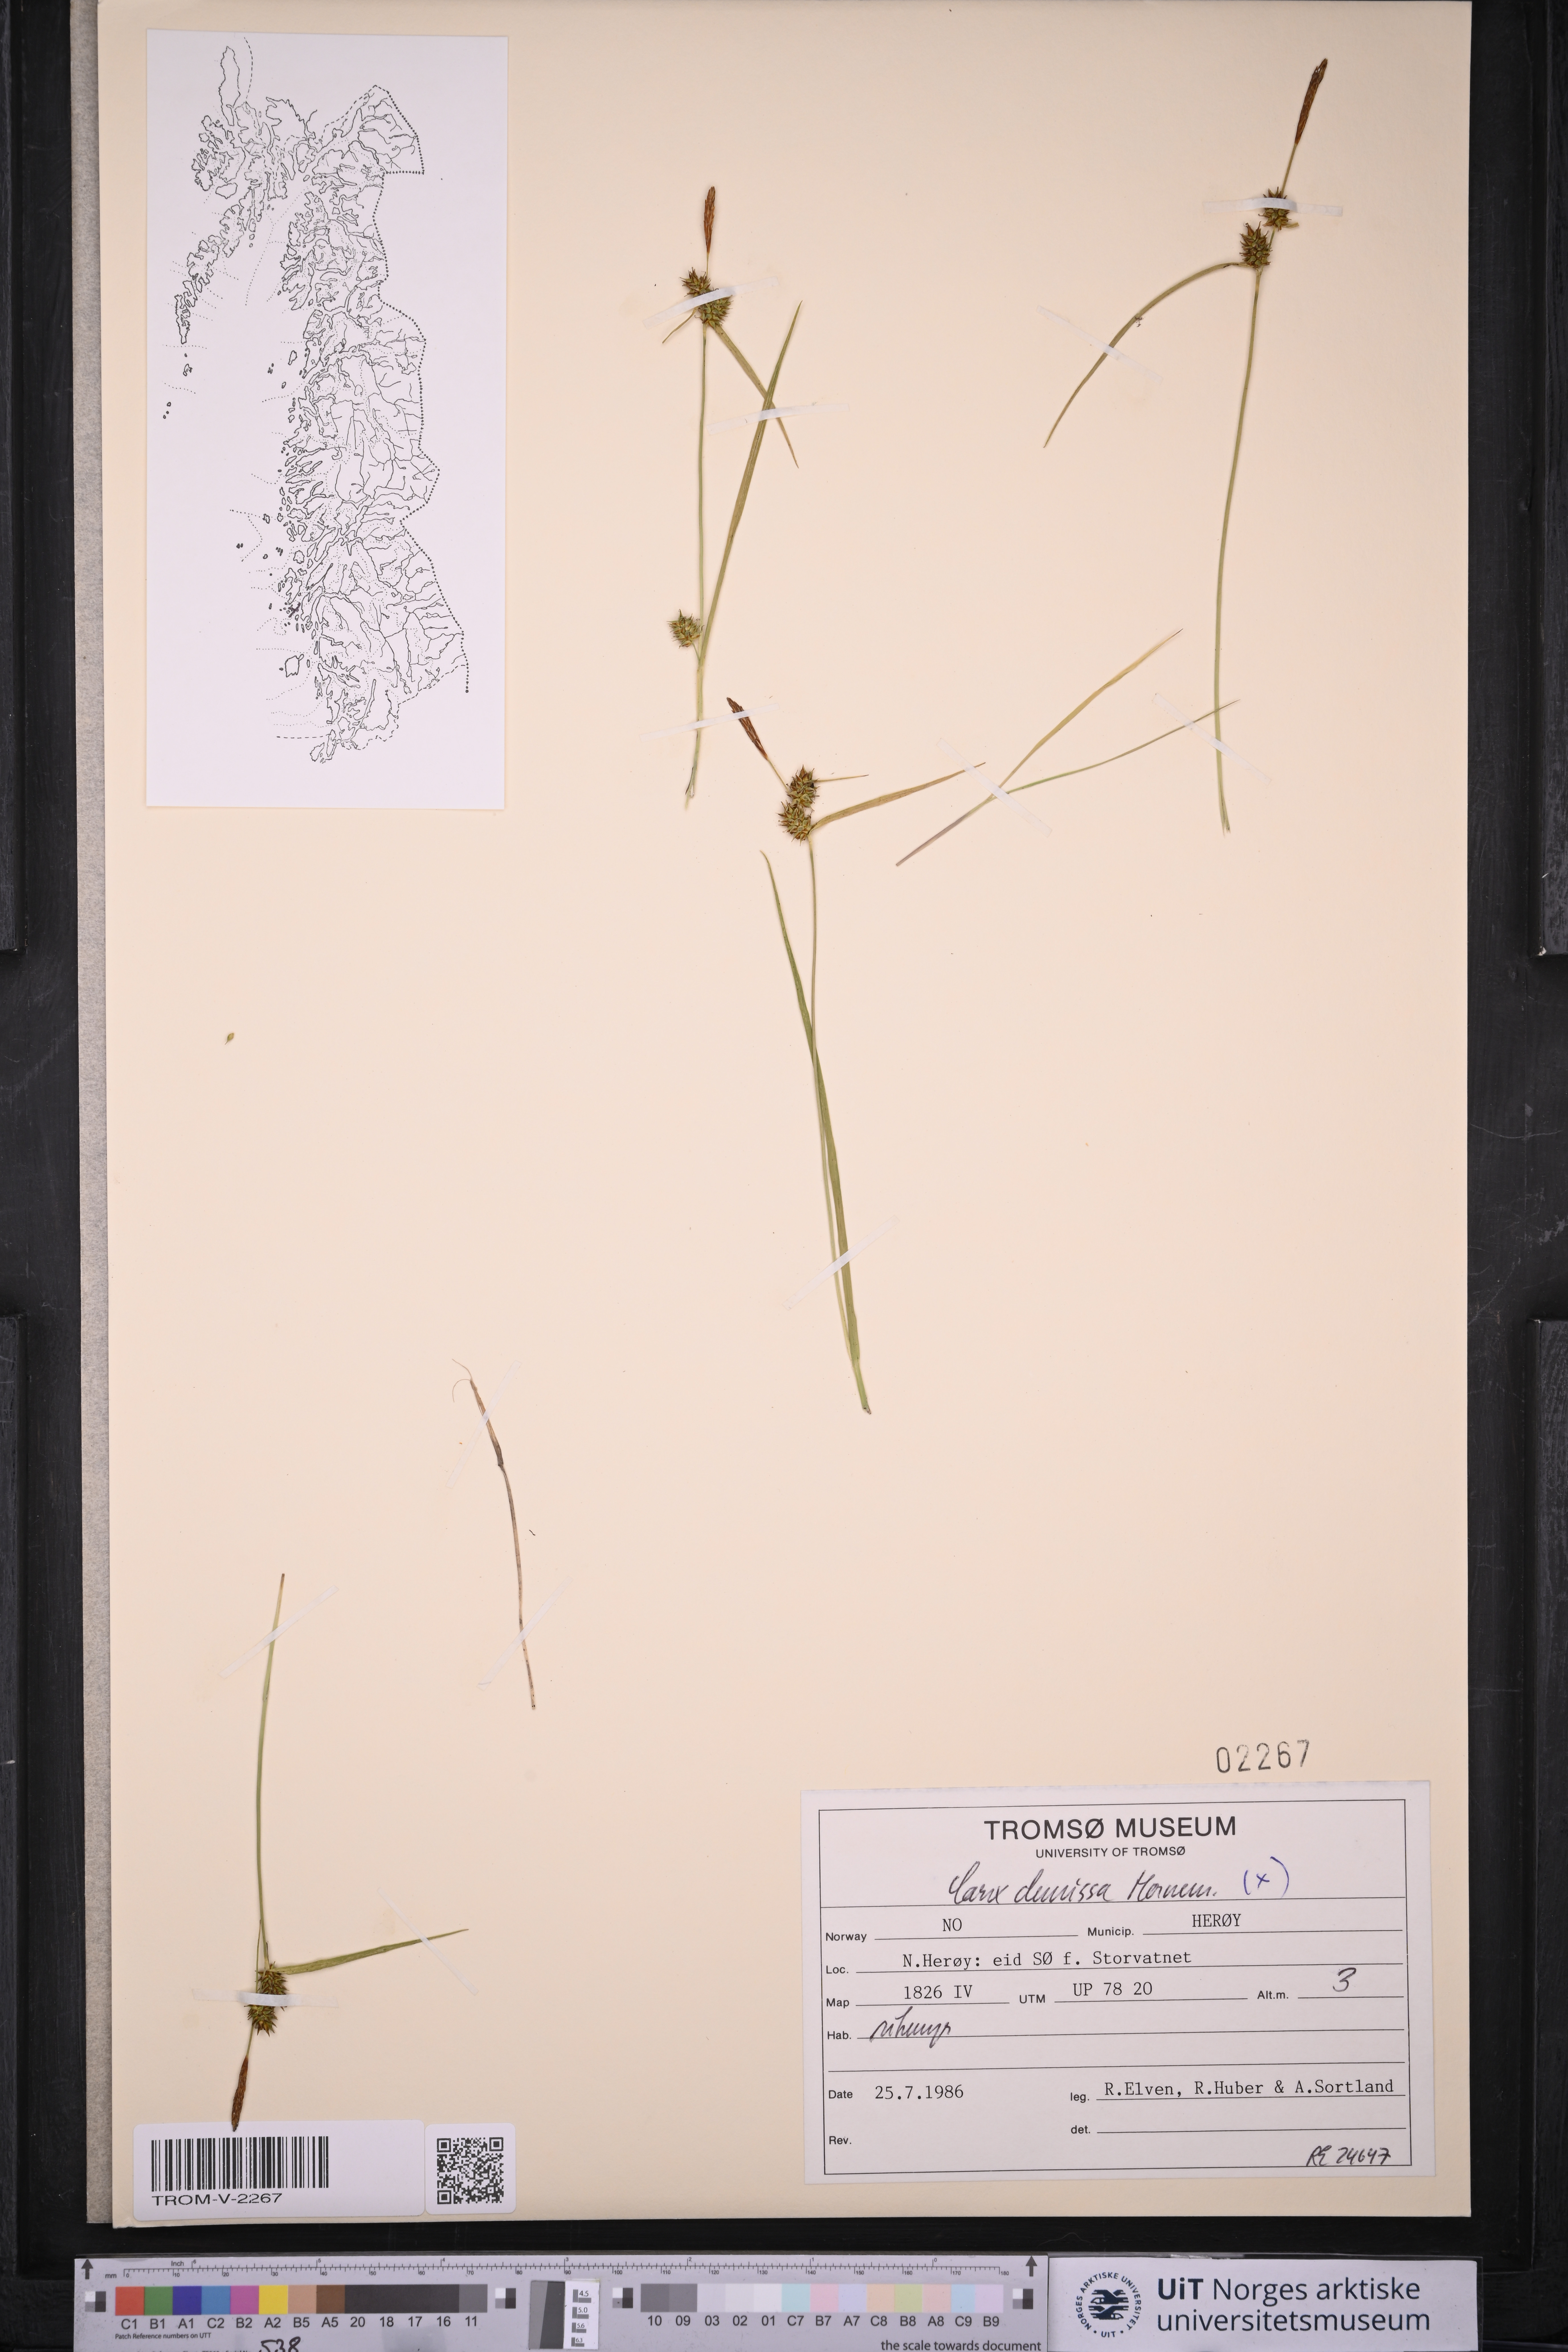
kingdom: Plantae
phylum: Tracheophyta
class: Liliopsida
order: Poales
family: Cyperaceae
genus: Carex
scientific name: Carex demissa
